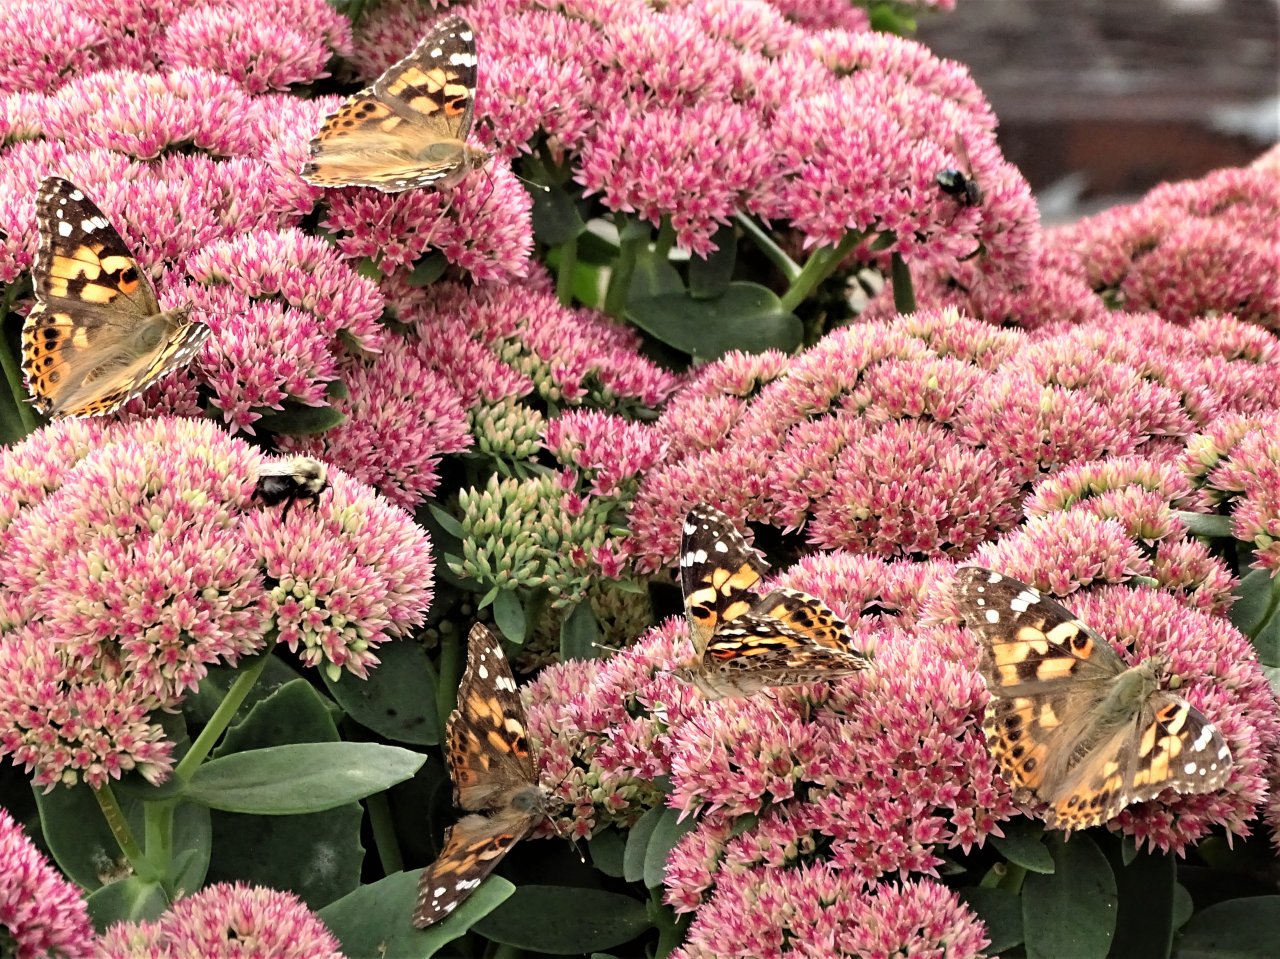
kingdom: Animalia
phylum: Arthropoda
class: Insecta
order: Lepidoptera
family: Nymphalidae
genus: Vanessa
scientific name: Vanessa cardui
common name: Painted Lady
